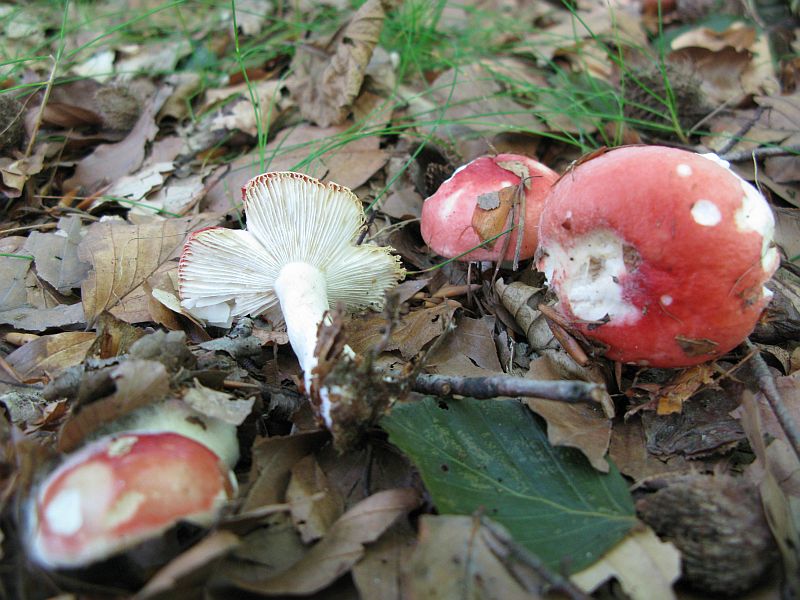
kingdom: Fungi
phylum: Basidiomycota
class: Agaricomycetes
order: Russulales
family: Russulaceae
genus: Russula
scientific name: Russula emetica
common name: stor gift-skørhat
